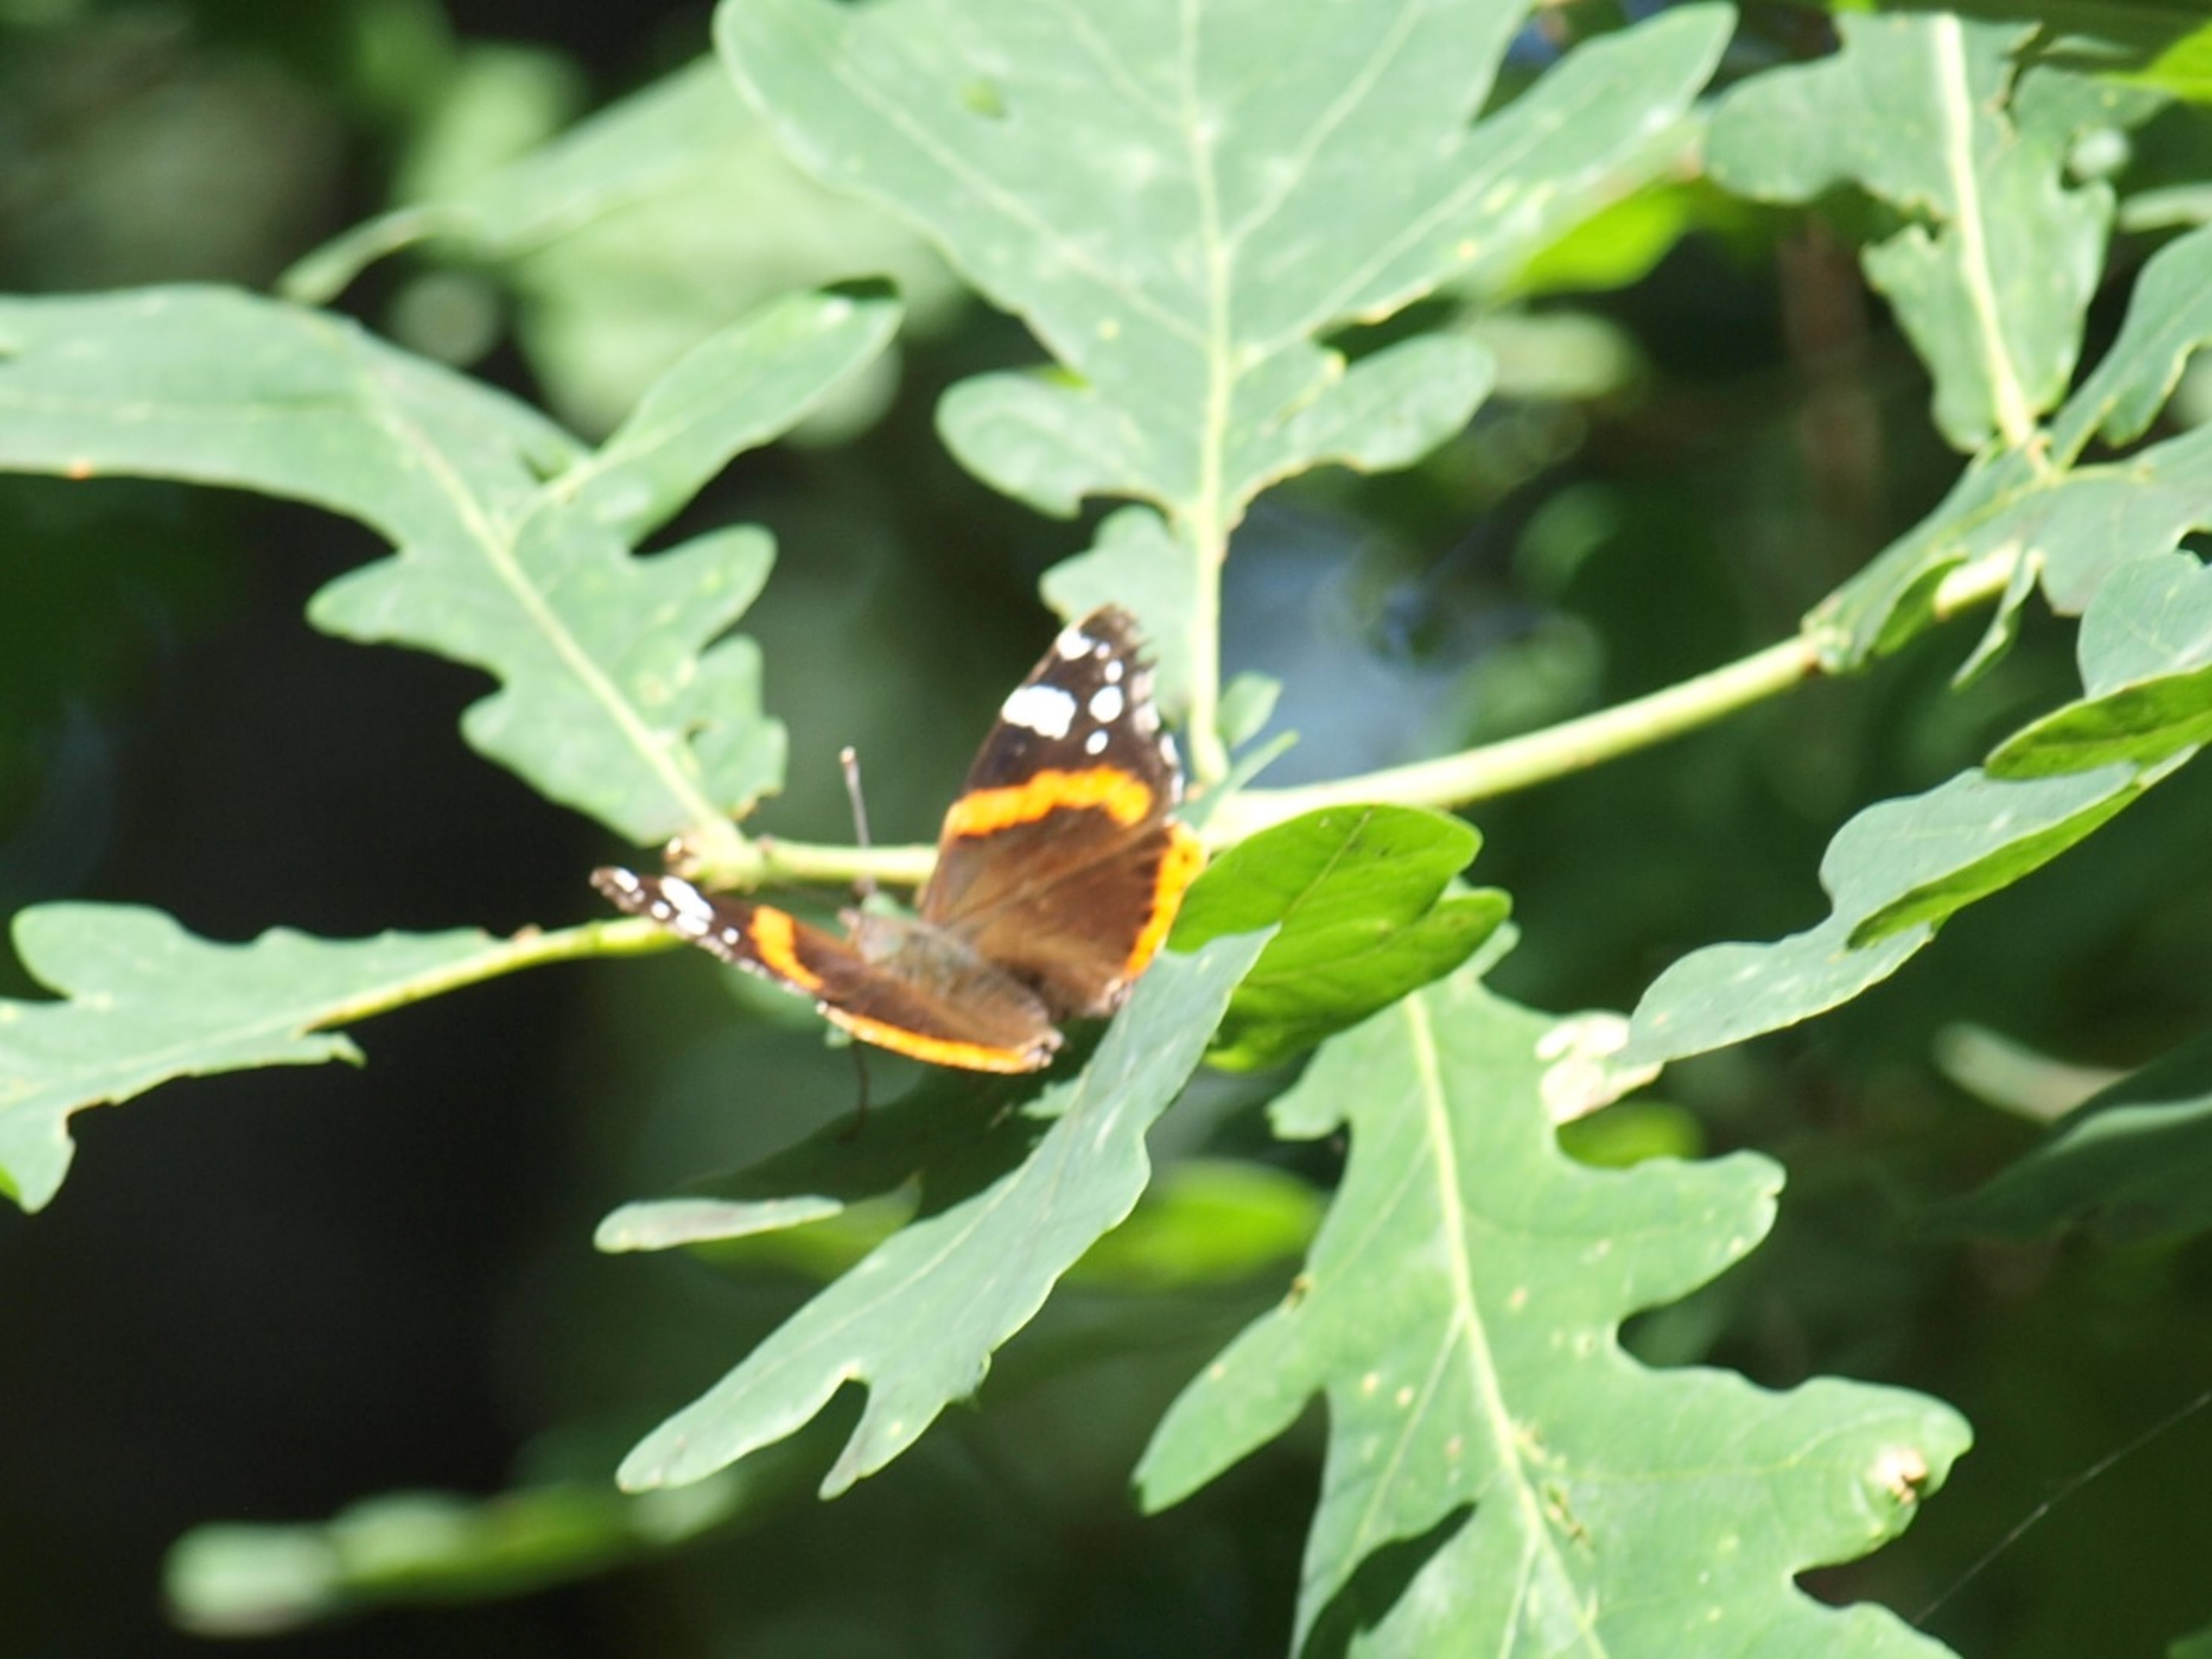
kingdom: Animalia
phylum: Arthropoda
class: Insecta
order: Lepidoptera
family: Nymphalidae
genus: Vanessa
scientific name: Vanessa atalanta
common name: Admiral
